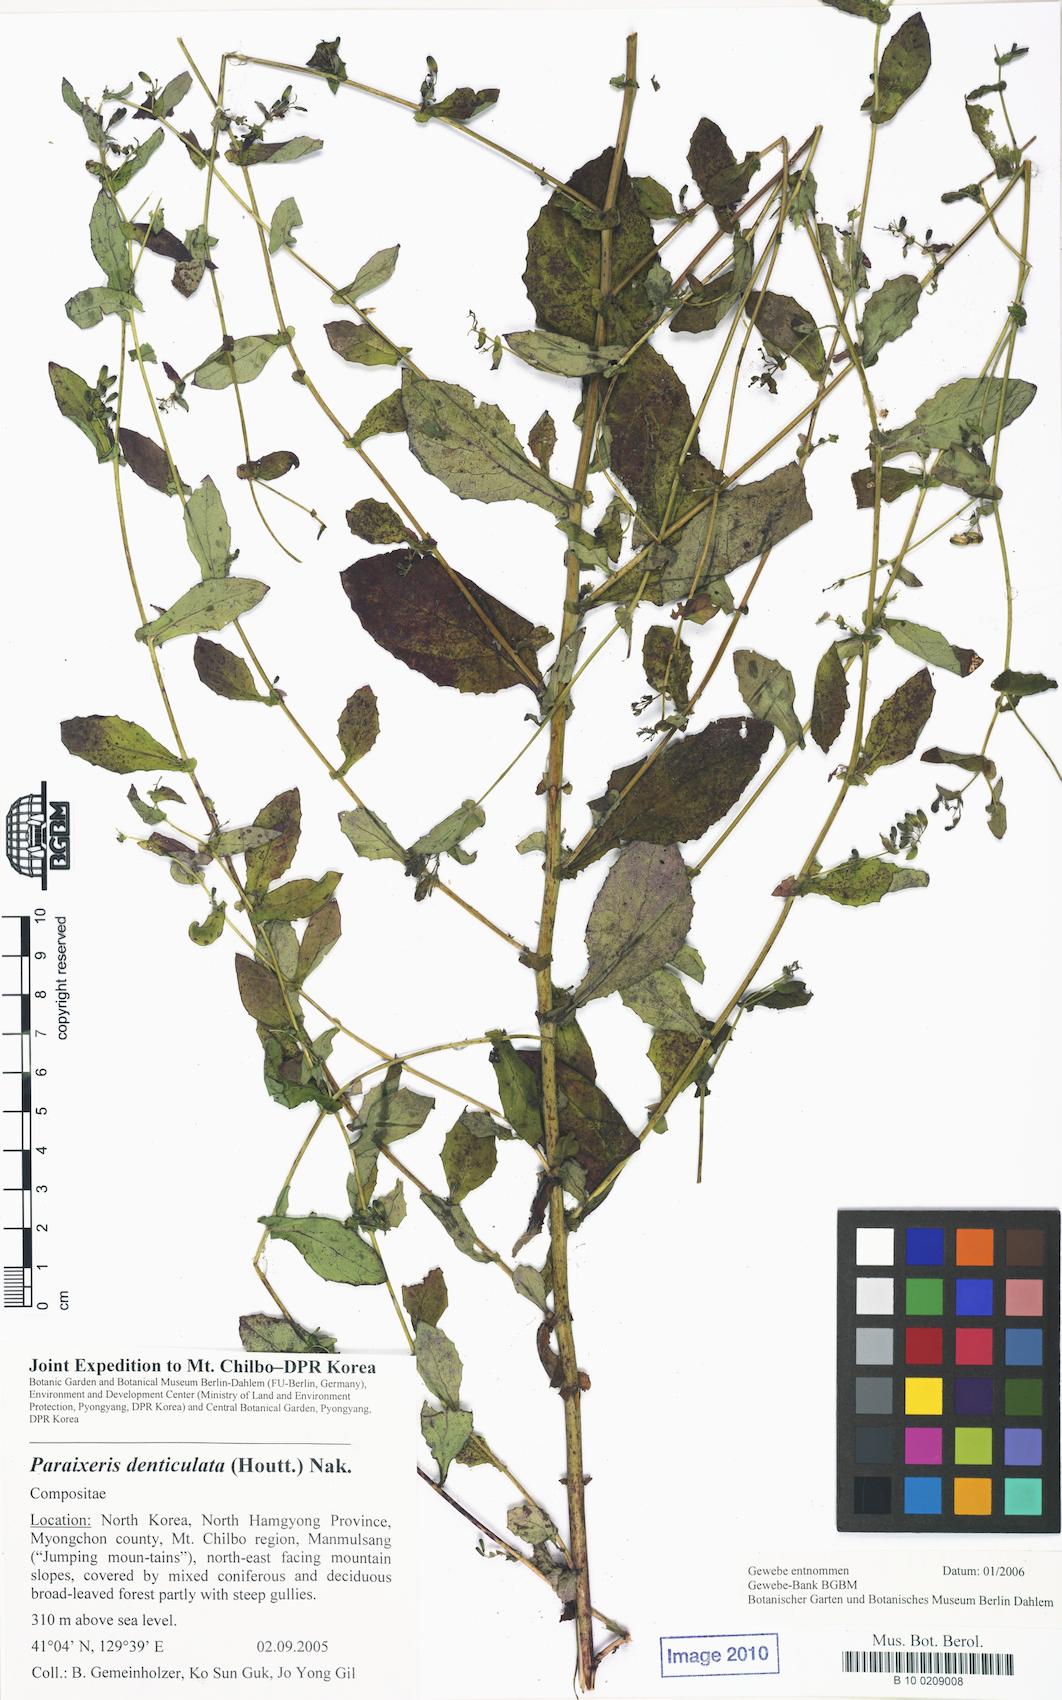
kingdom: Plantae
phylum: Tracheophyta
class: Magnoliopsida
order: Asterales
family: Asteraceae
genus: Crepidiastrum
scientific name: Crepidiastrum denticulatum
